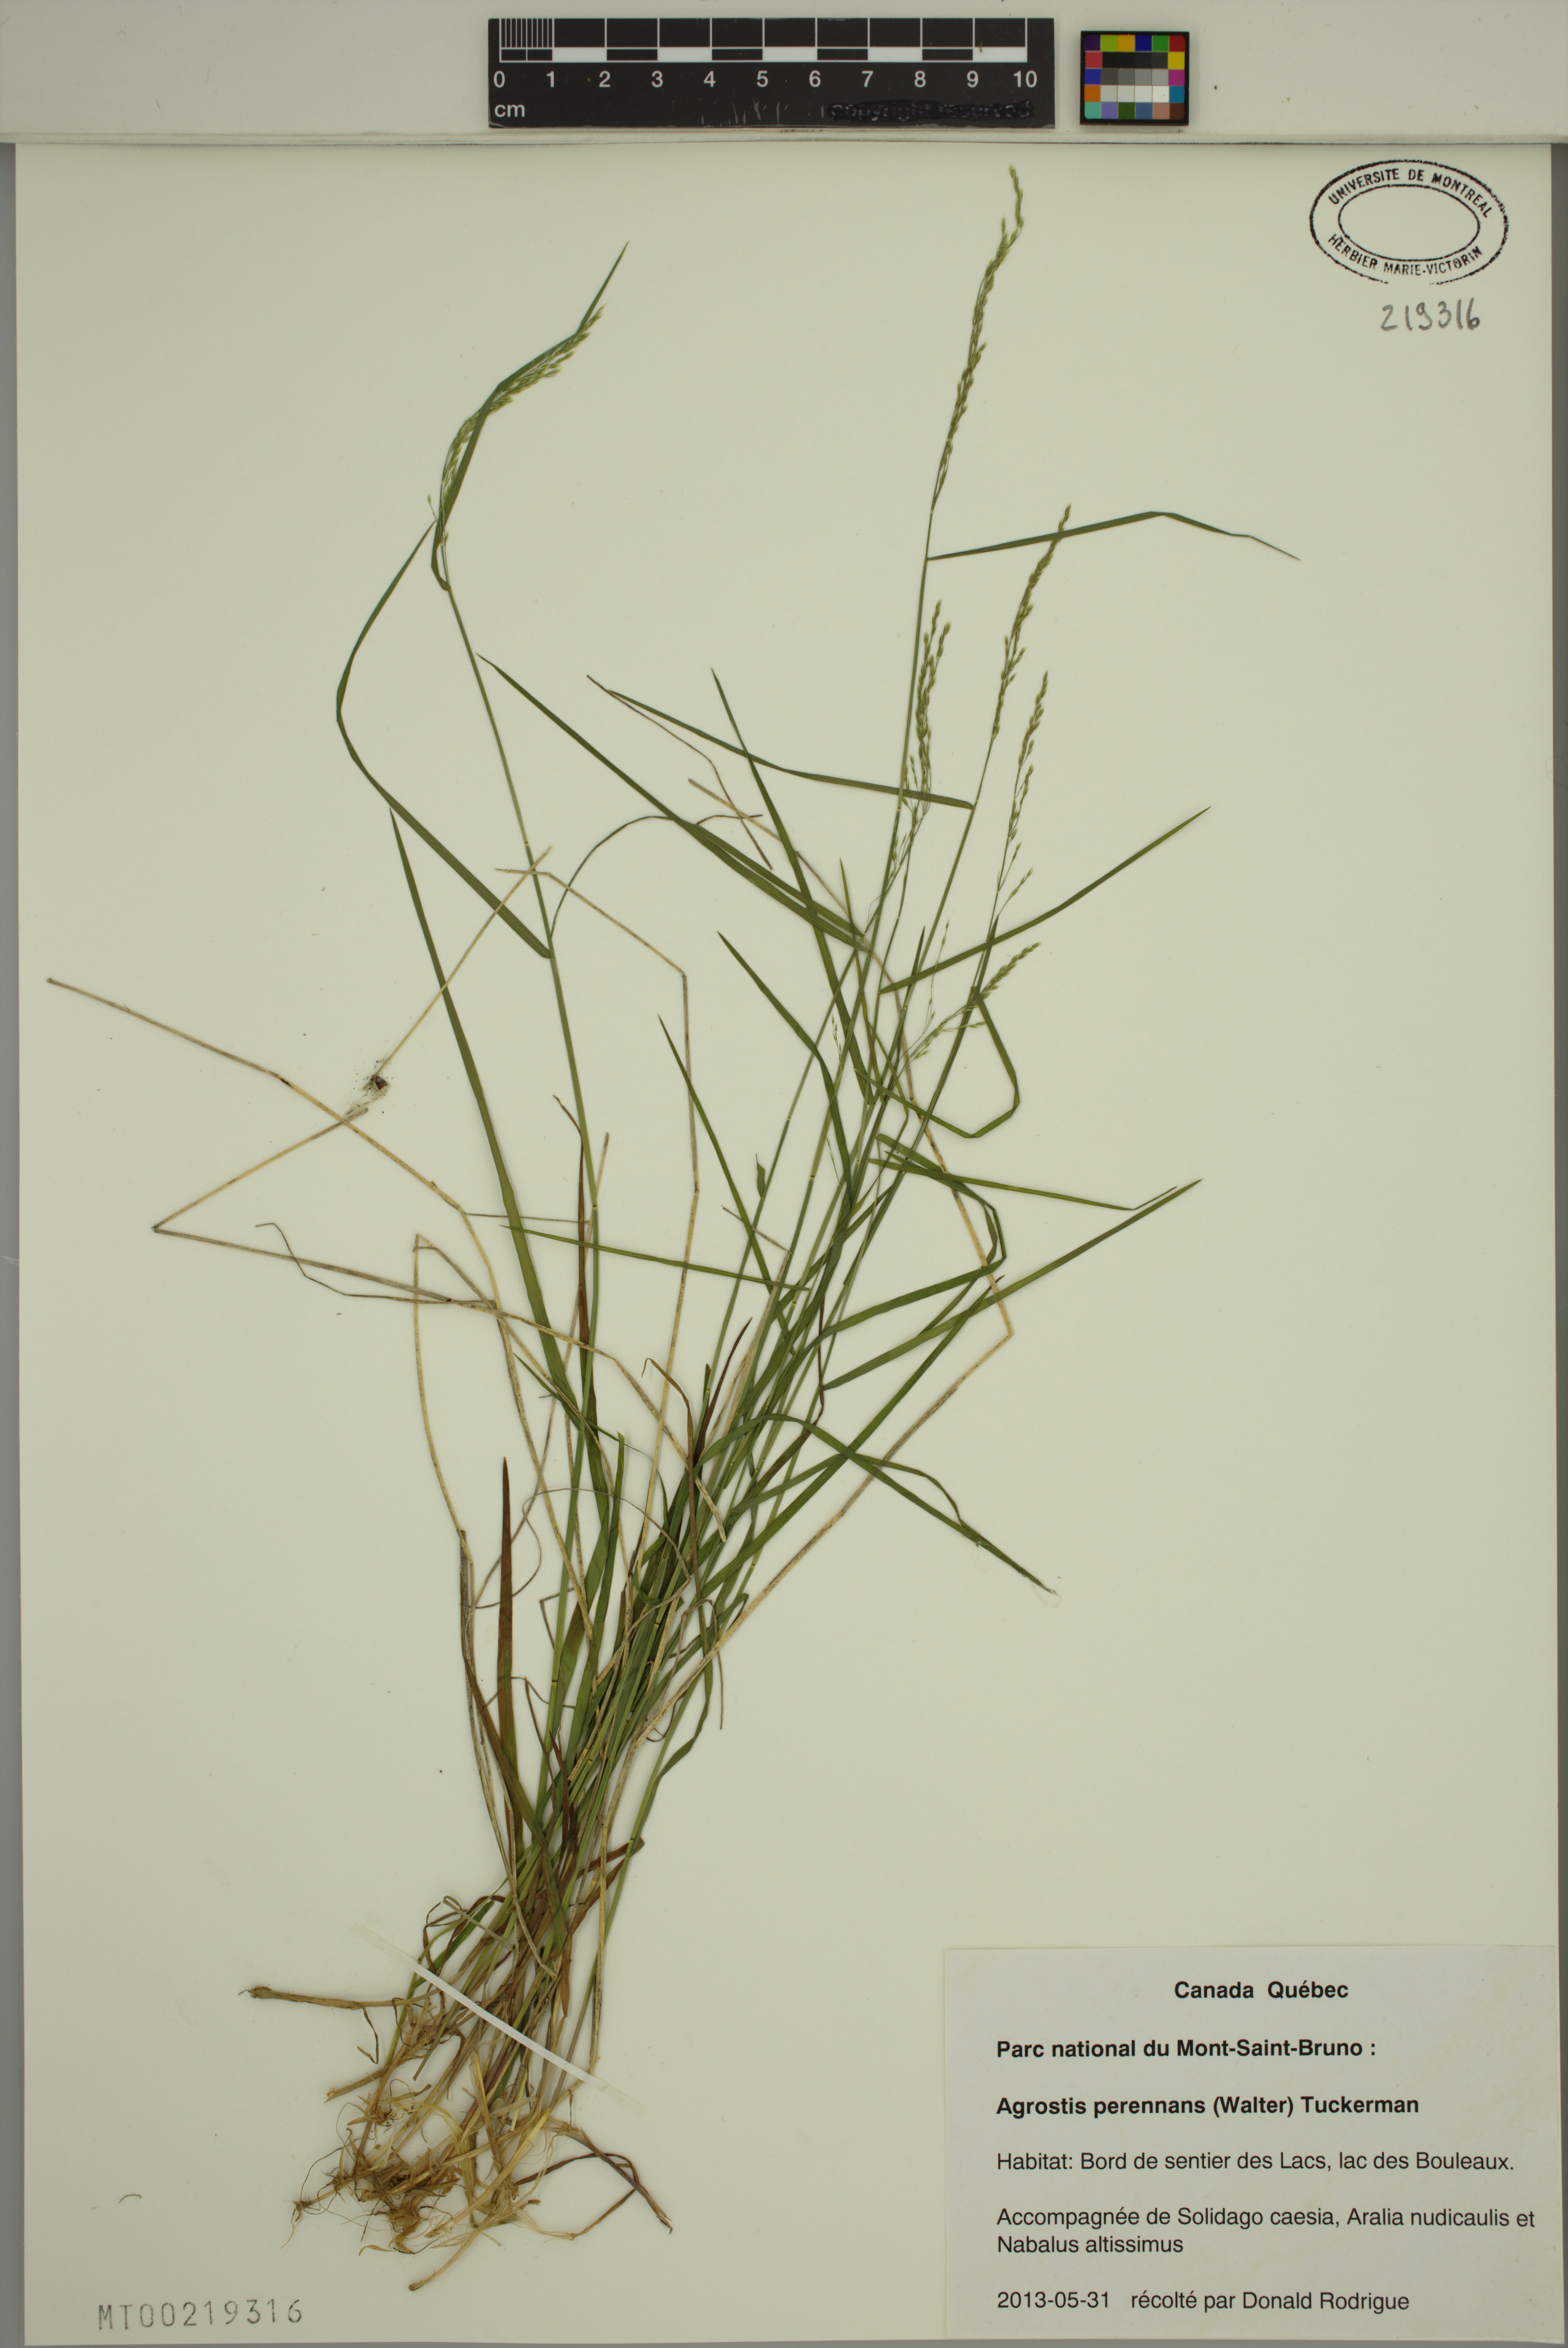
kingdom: Plantae
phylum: Tracheophyta
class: Liliopsida
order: Poales
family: Poaceae
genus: Agrostis
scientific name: Agrostis perennans
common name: Autumn bent
